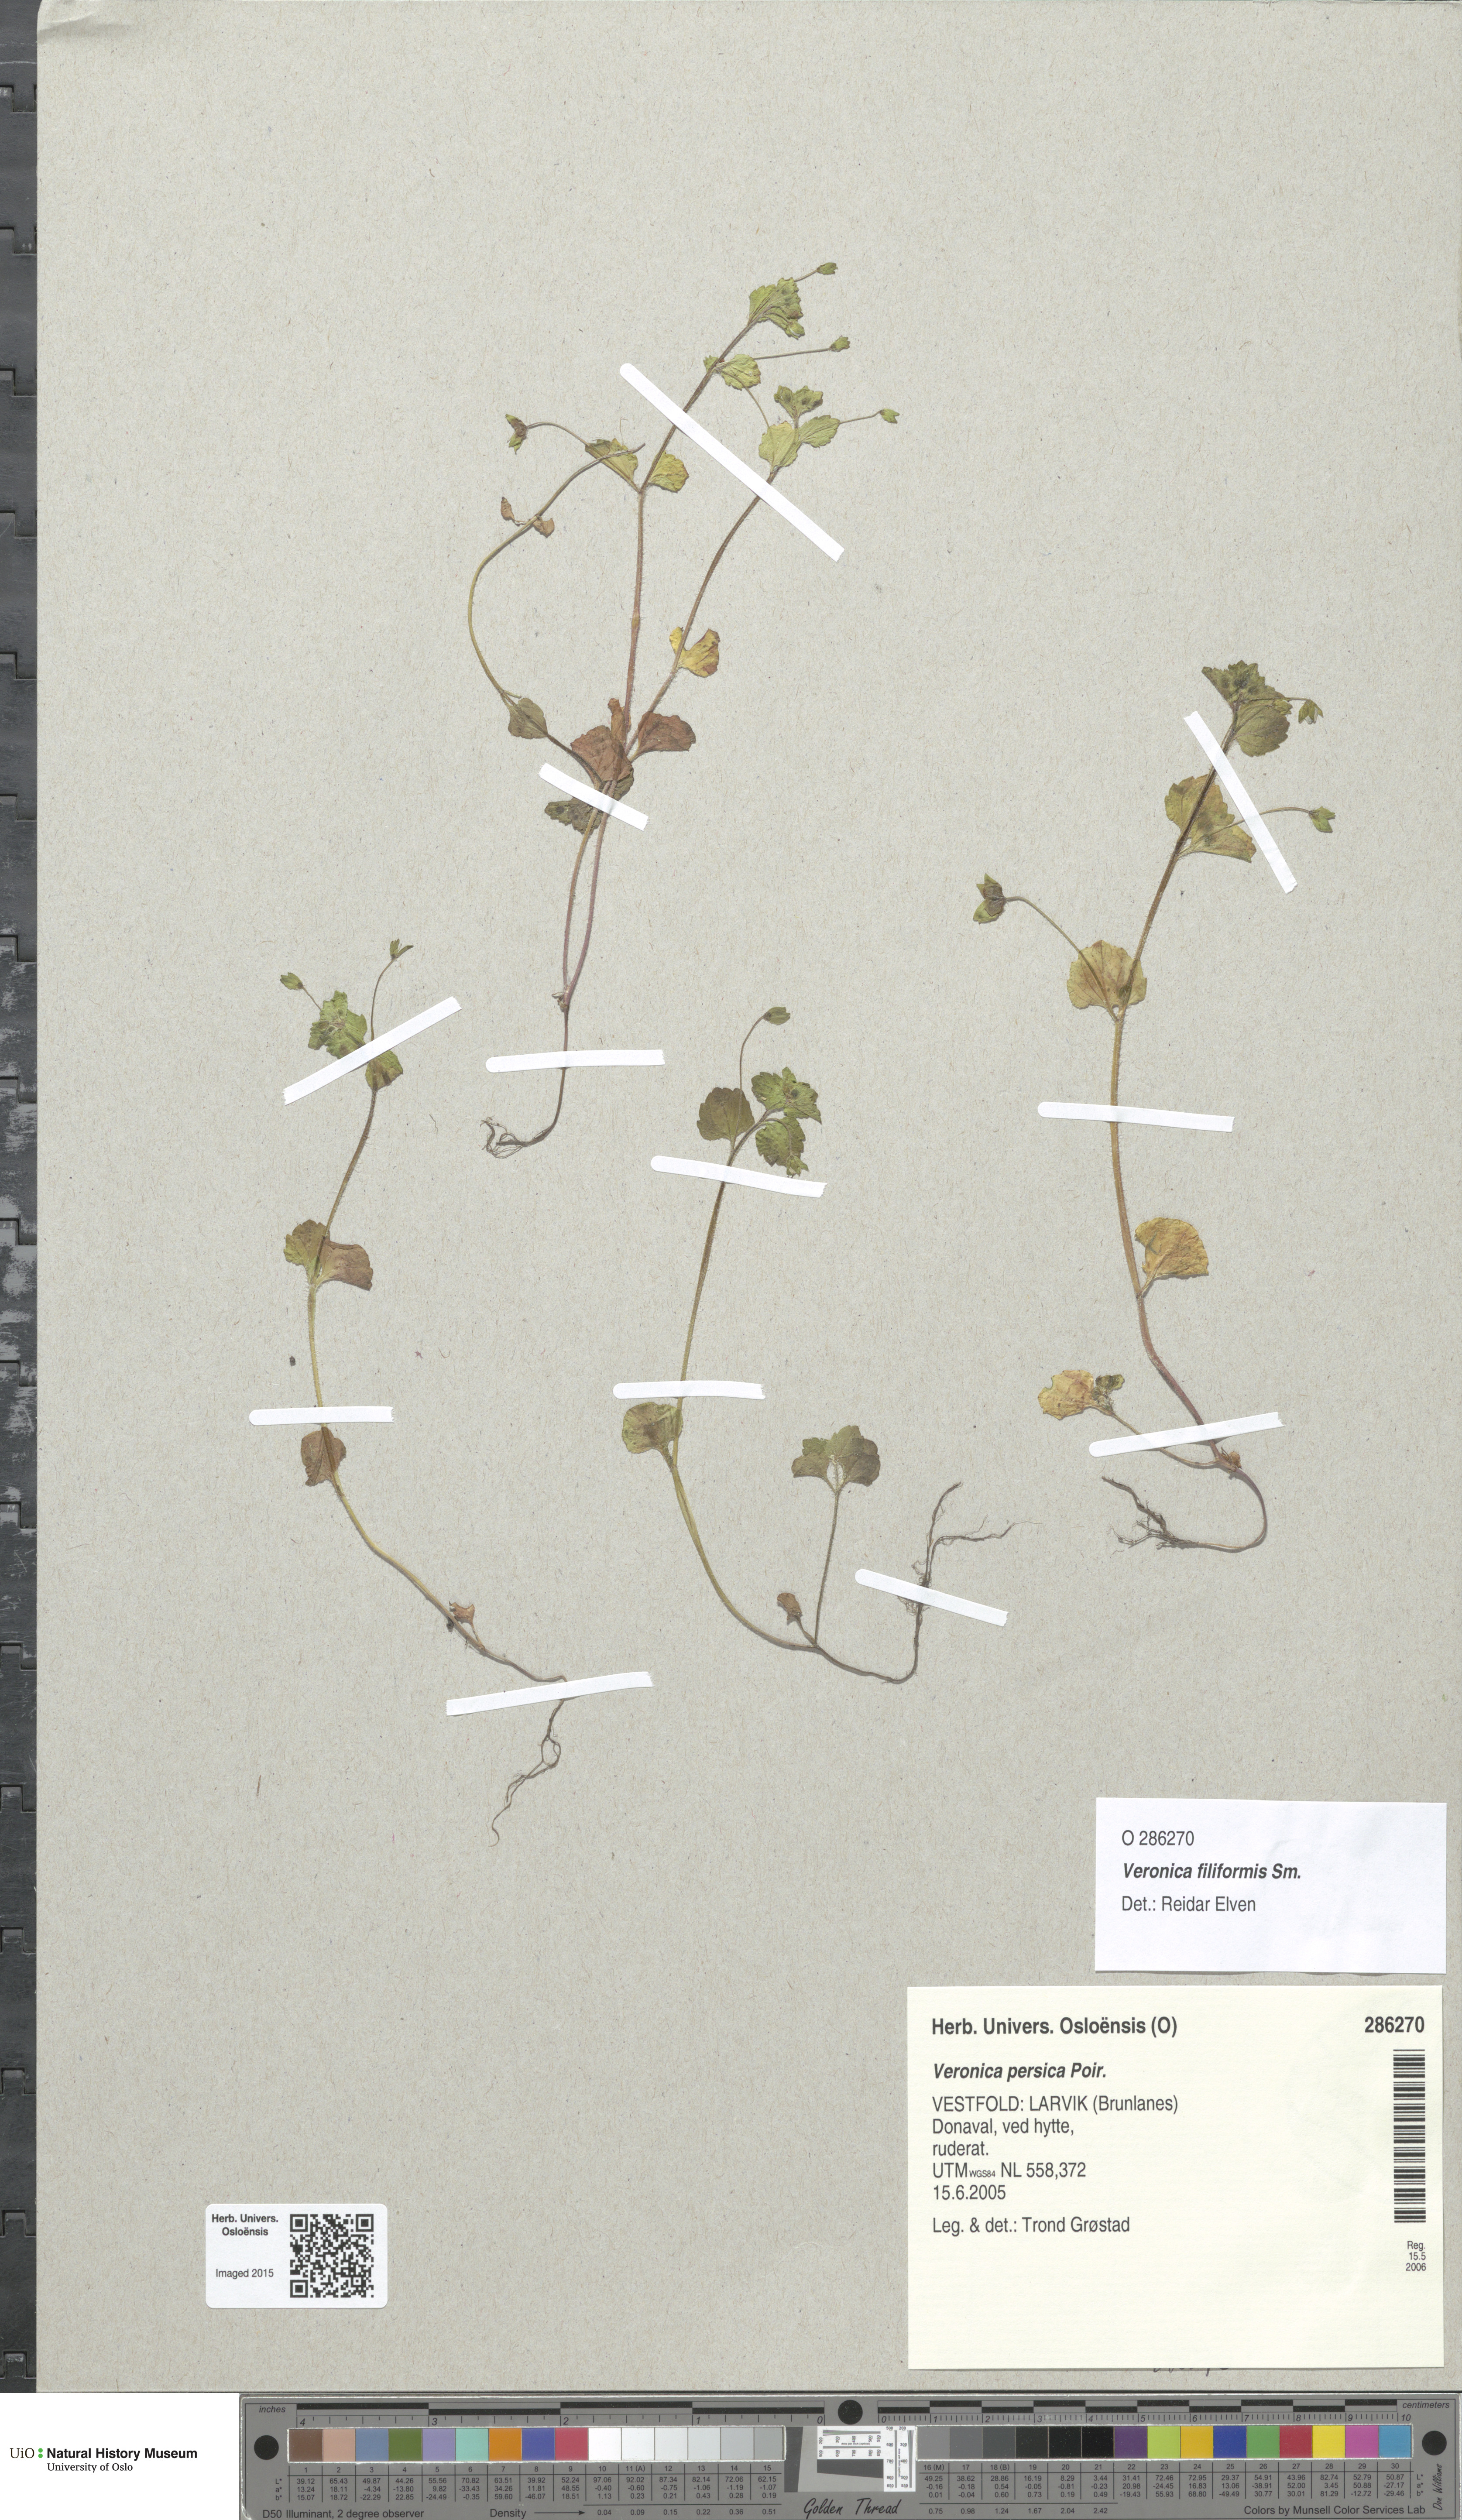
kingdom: Plantae
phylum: Tracheophyta
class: Magnoliopsida
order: Lamiales
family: Plantaginaceae
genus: Veronica
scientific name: Veronica filiformis
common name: Slender speedwell
